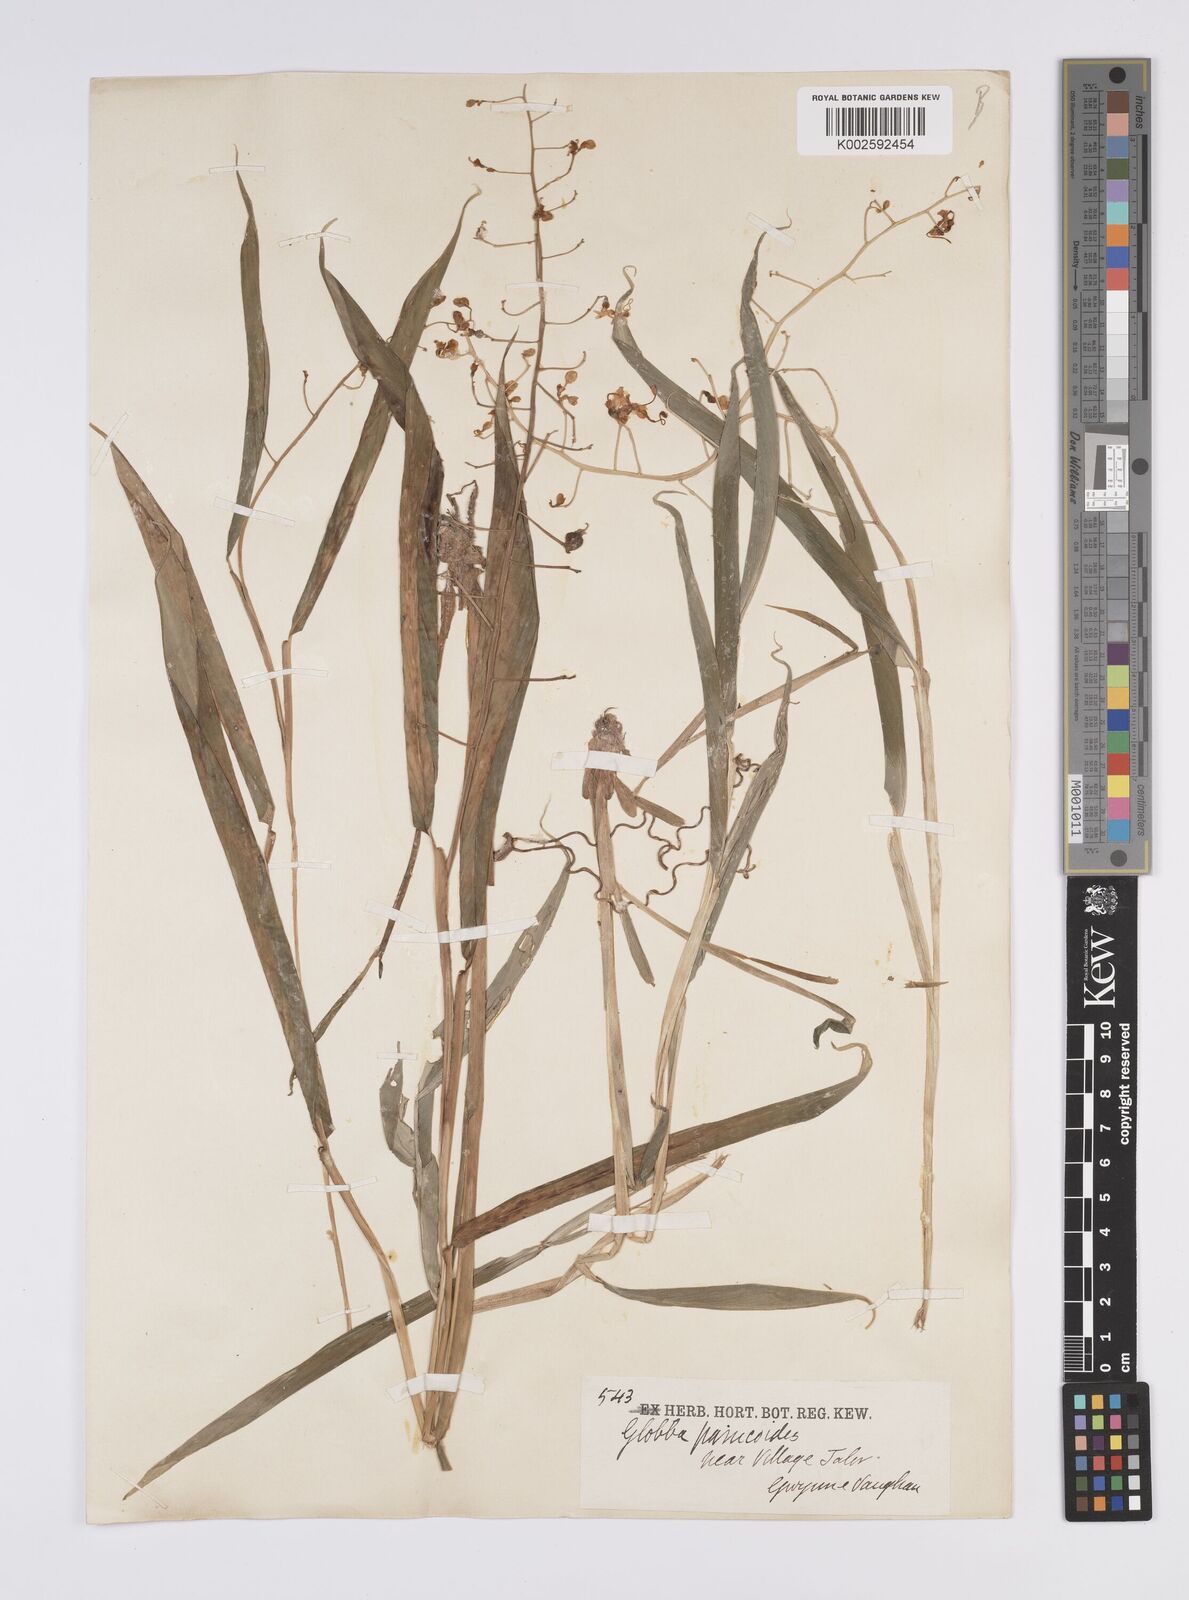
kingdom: Plantae
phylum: Tracheophyta
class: Liliopsida
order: Zingiberales
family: Zingiberaceae
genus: Globba
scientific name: Globba pendula
